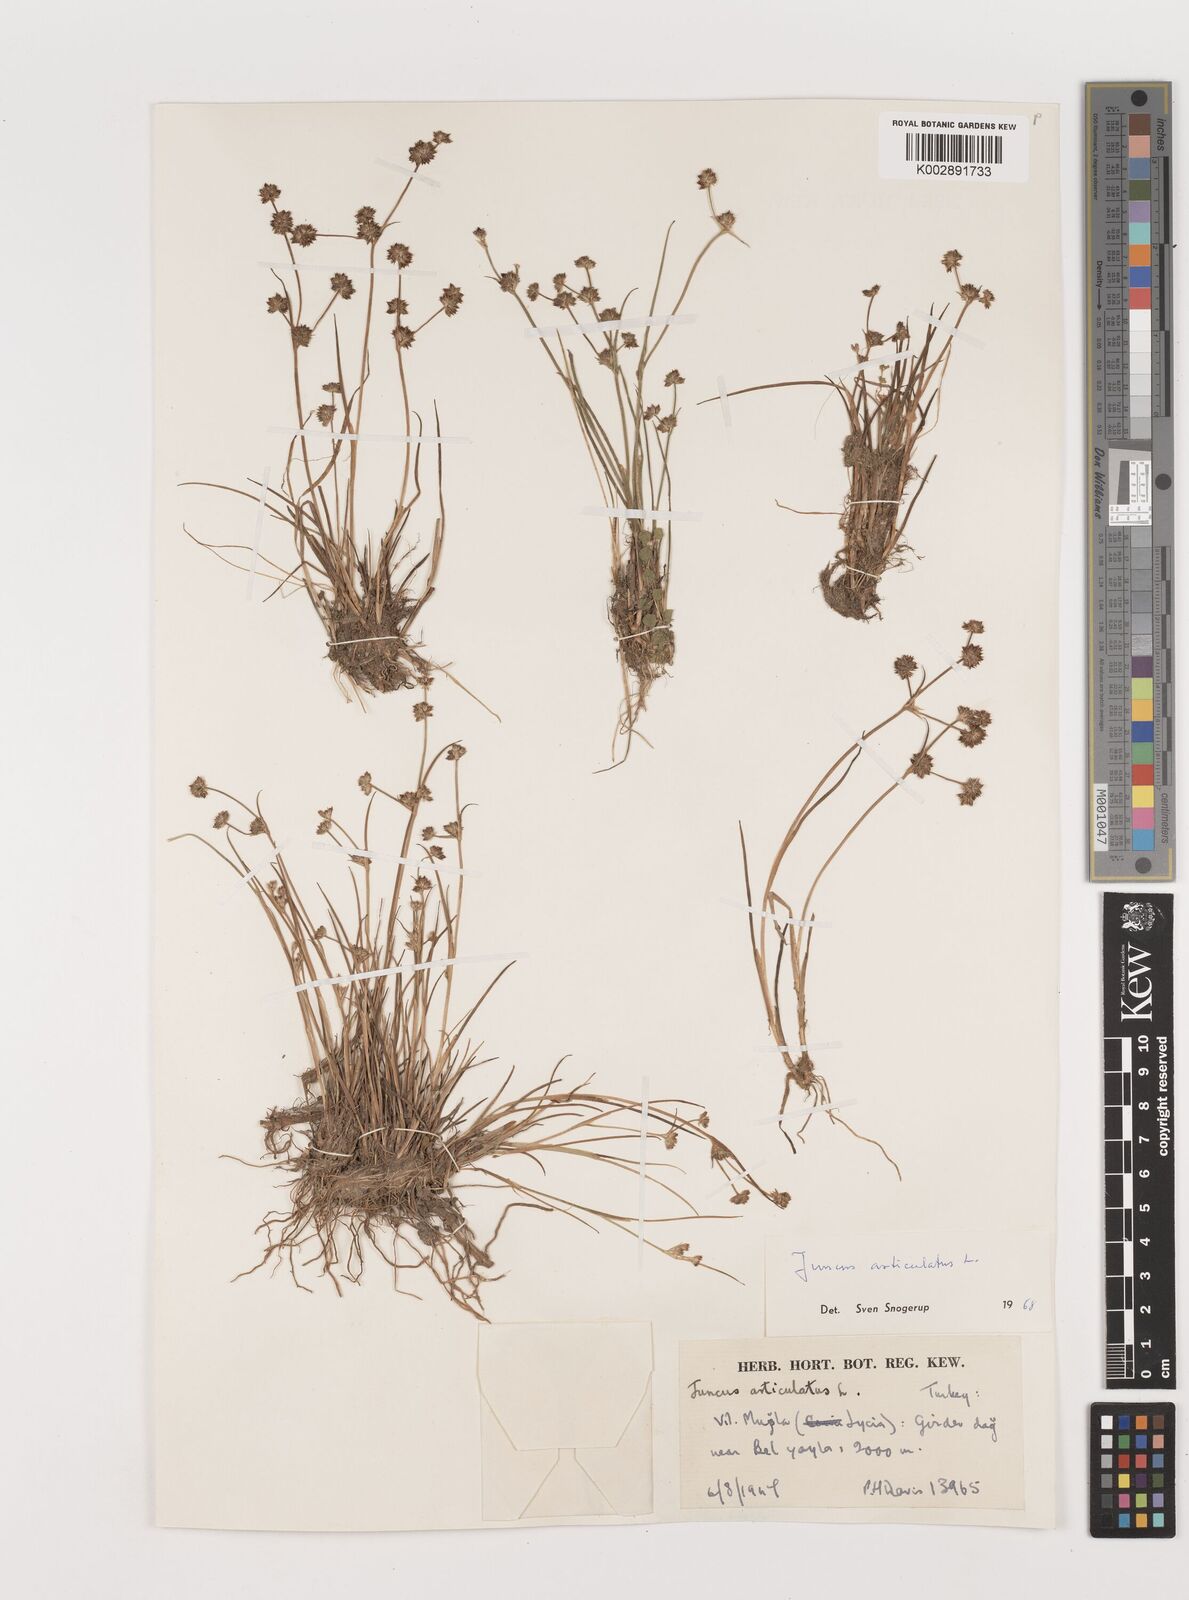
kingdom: Plantae
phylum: Tracheophyta
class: Liliopsida
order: Poales
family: Juncaceae
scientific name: Juncaceae
